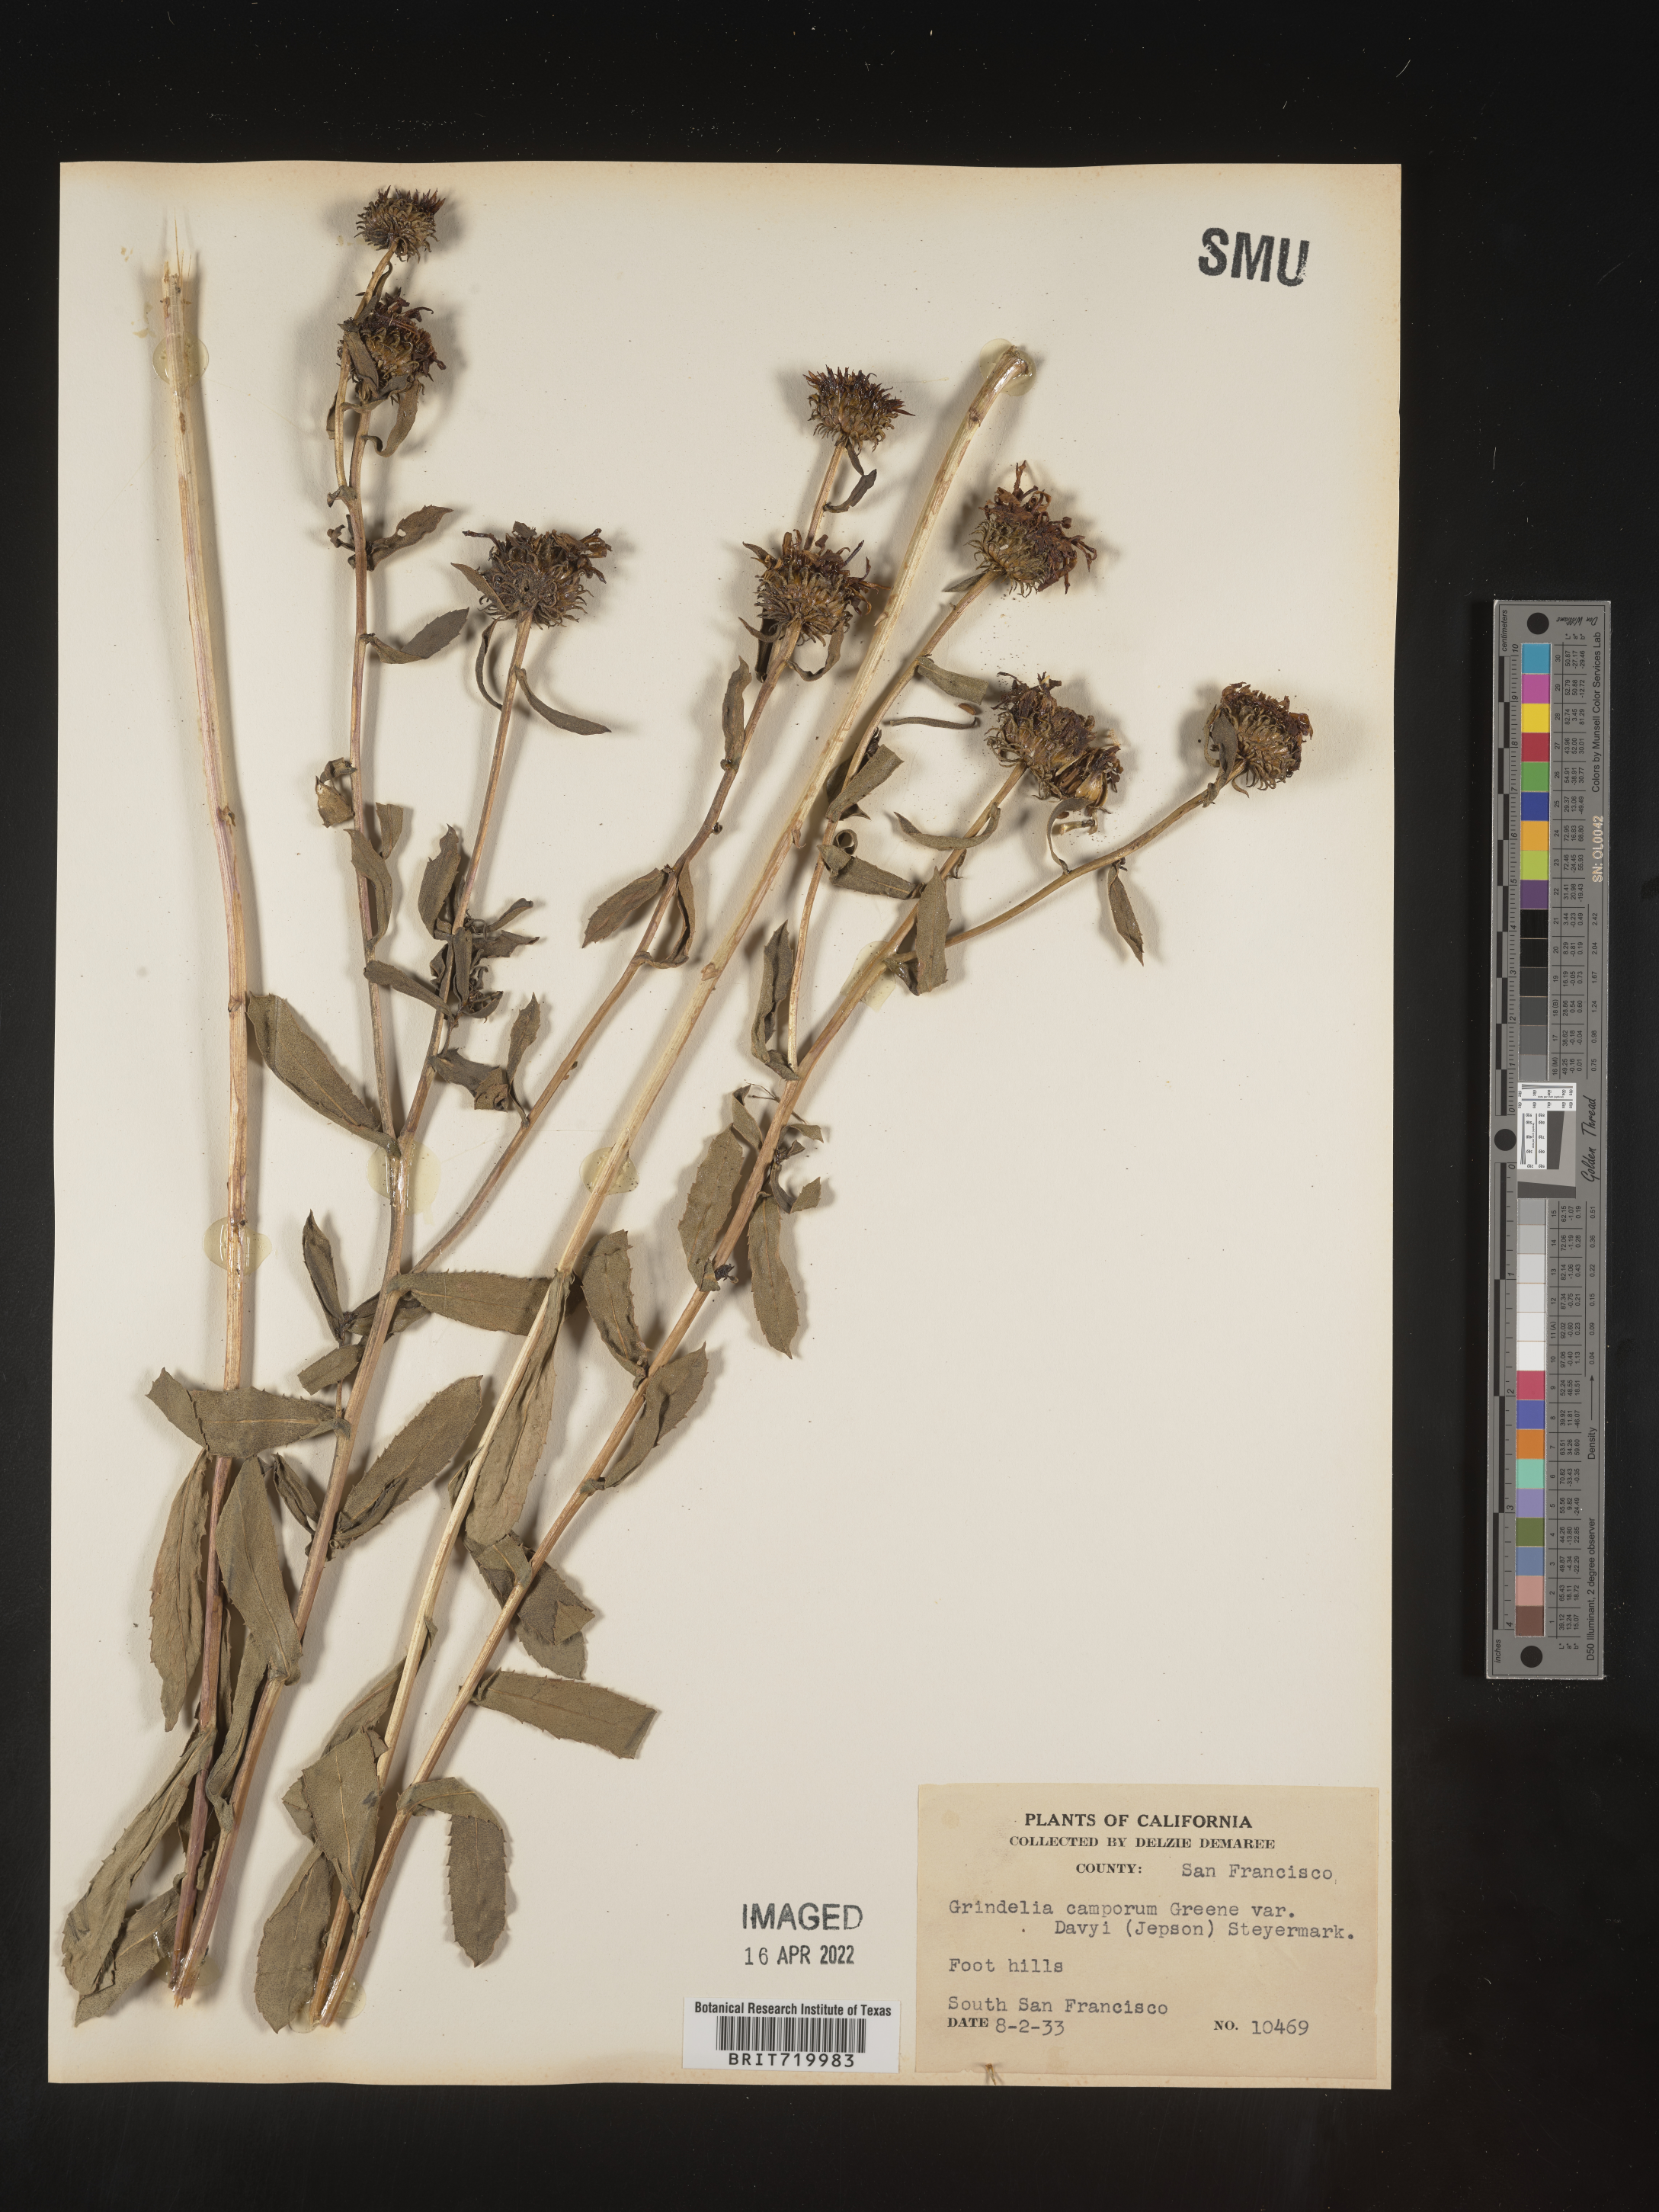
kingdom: Plantae
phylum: Tracheophyta
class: Magnoliopsida
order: Asterales
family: Asteraceae
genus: Grindelia
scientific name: Grindelia hirsutula
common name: Hairy gumweed
